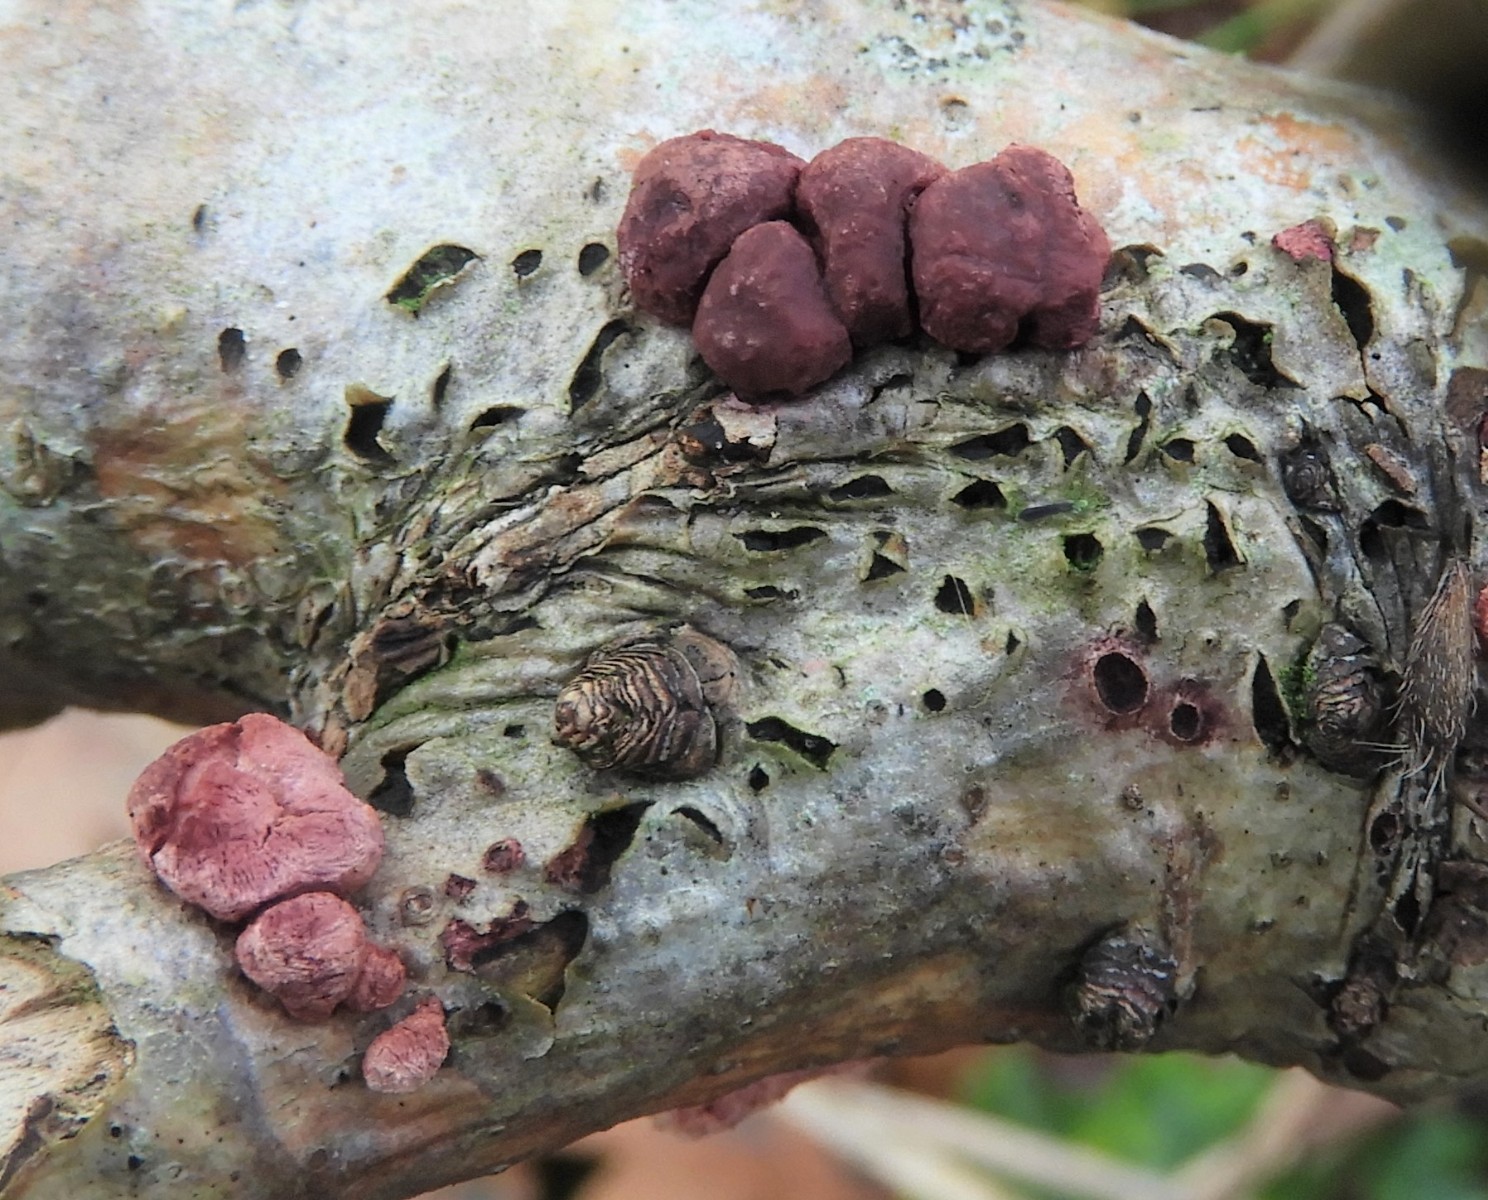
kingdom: Fungi
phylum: Ascomycota
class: Sordariomycetes
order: Hypocreales
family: Hypocreaceae
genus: Trichoderma
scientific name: Trichoderma europaeum
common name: rosabrun kødkerne
